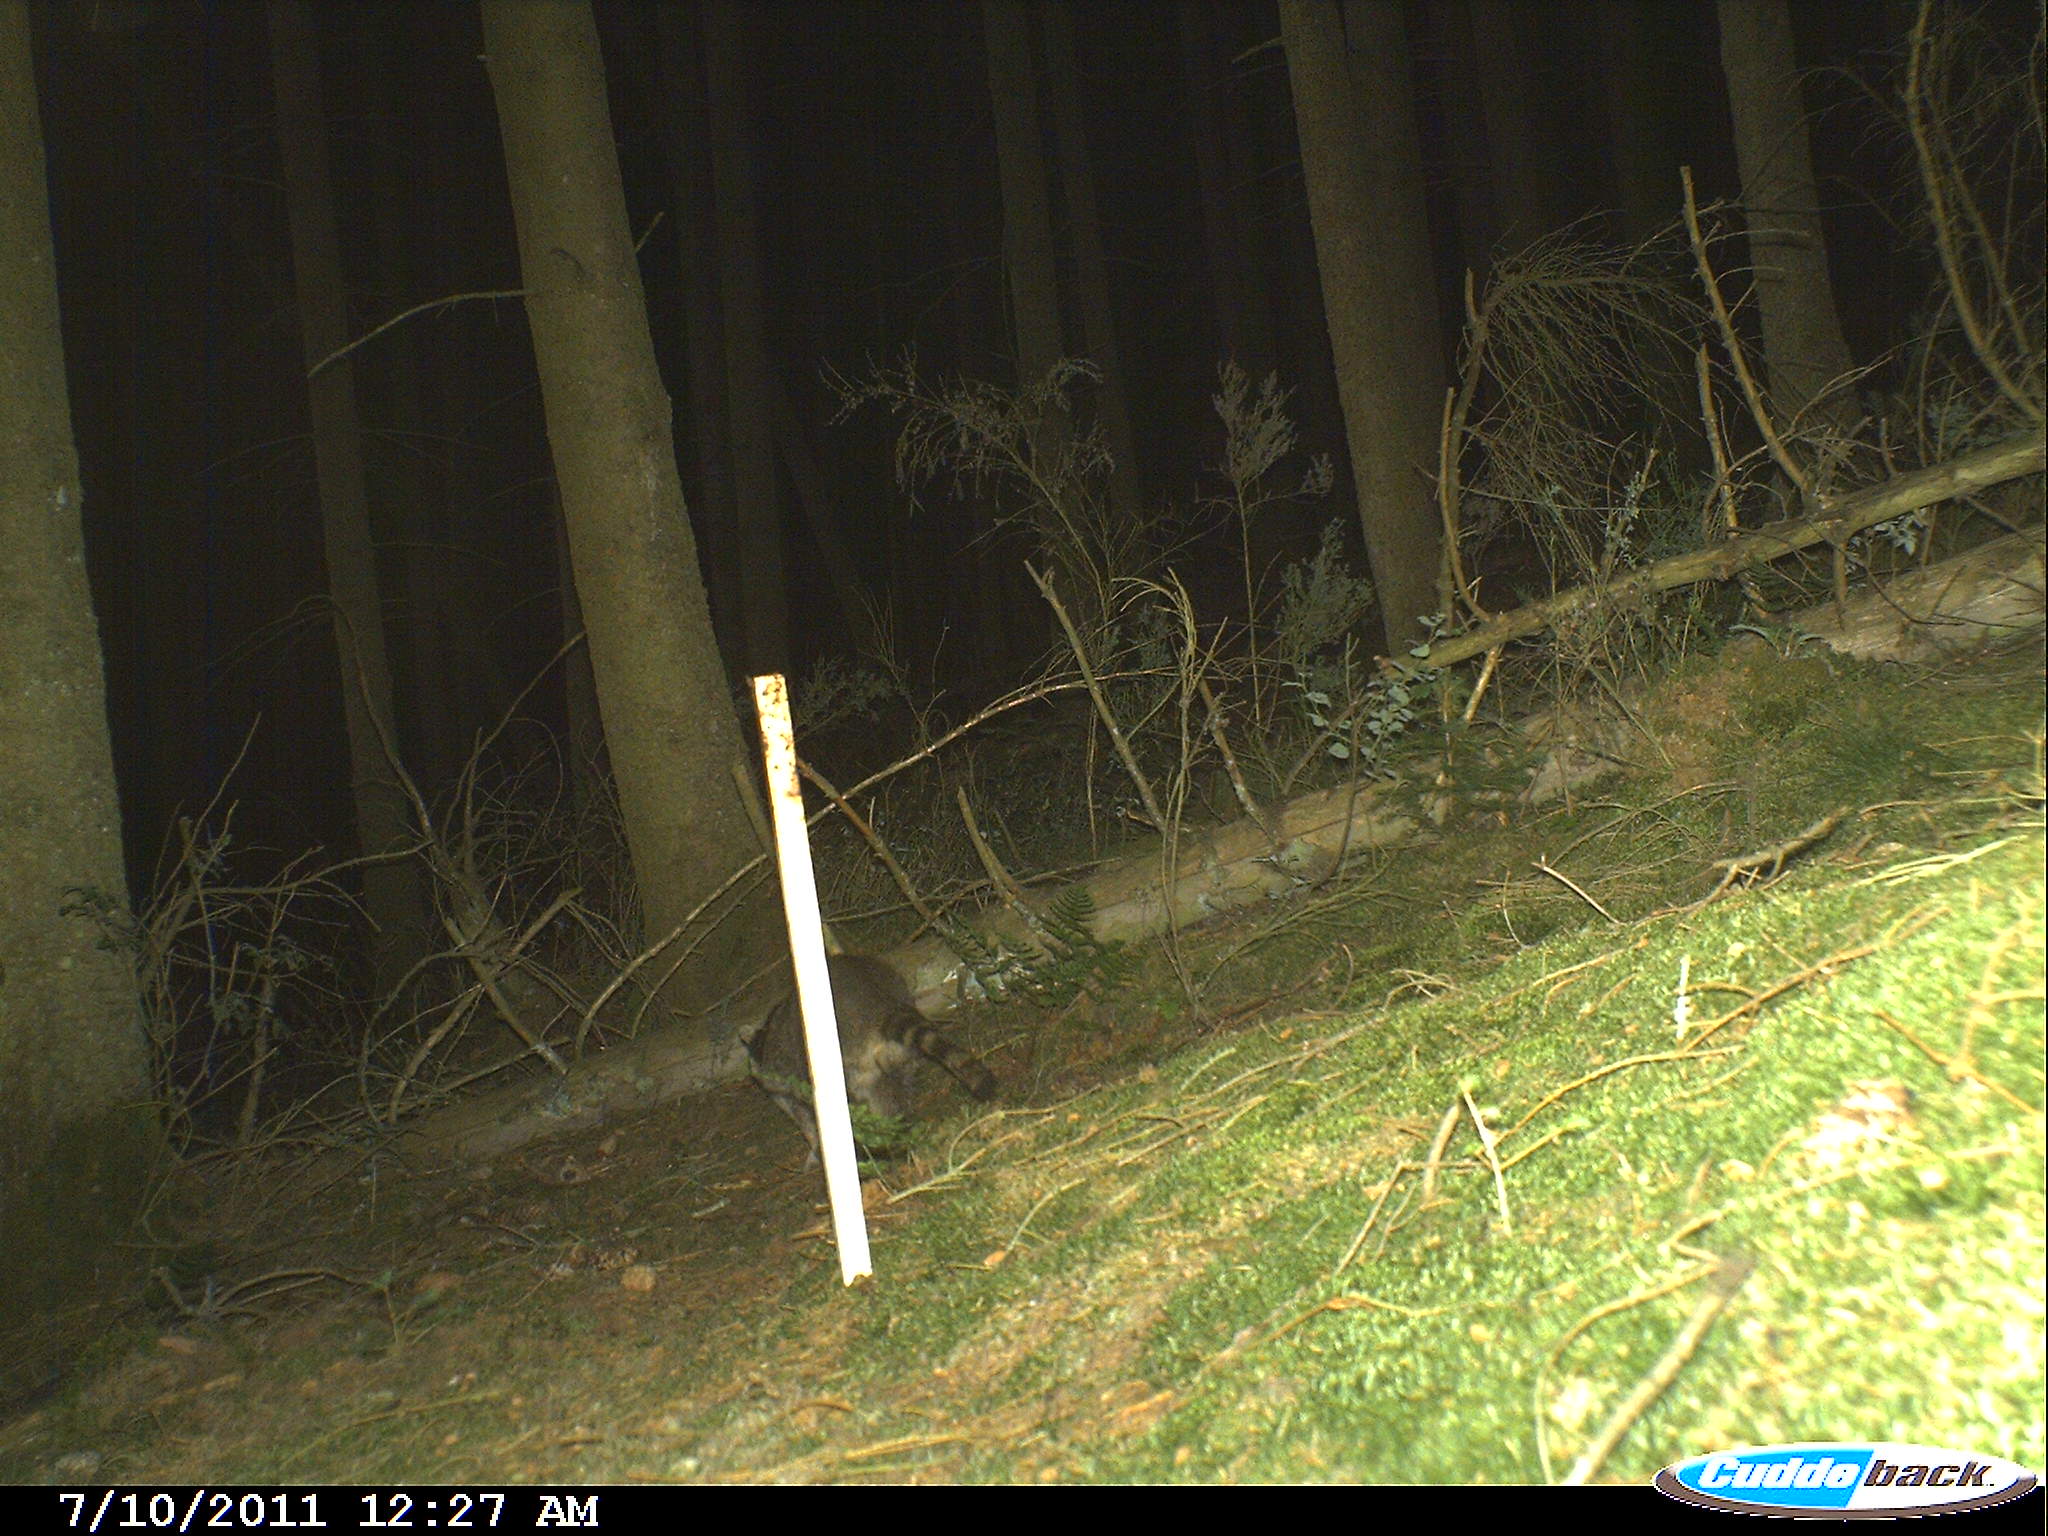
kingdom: Animalia
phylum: Chordata
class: Mammalia
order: Carnivora
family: Procyonidae
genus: Procyon
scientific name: Procyon lotor
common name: Raccoon
